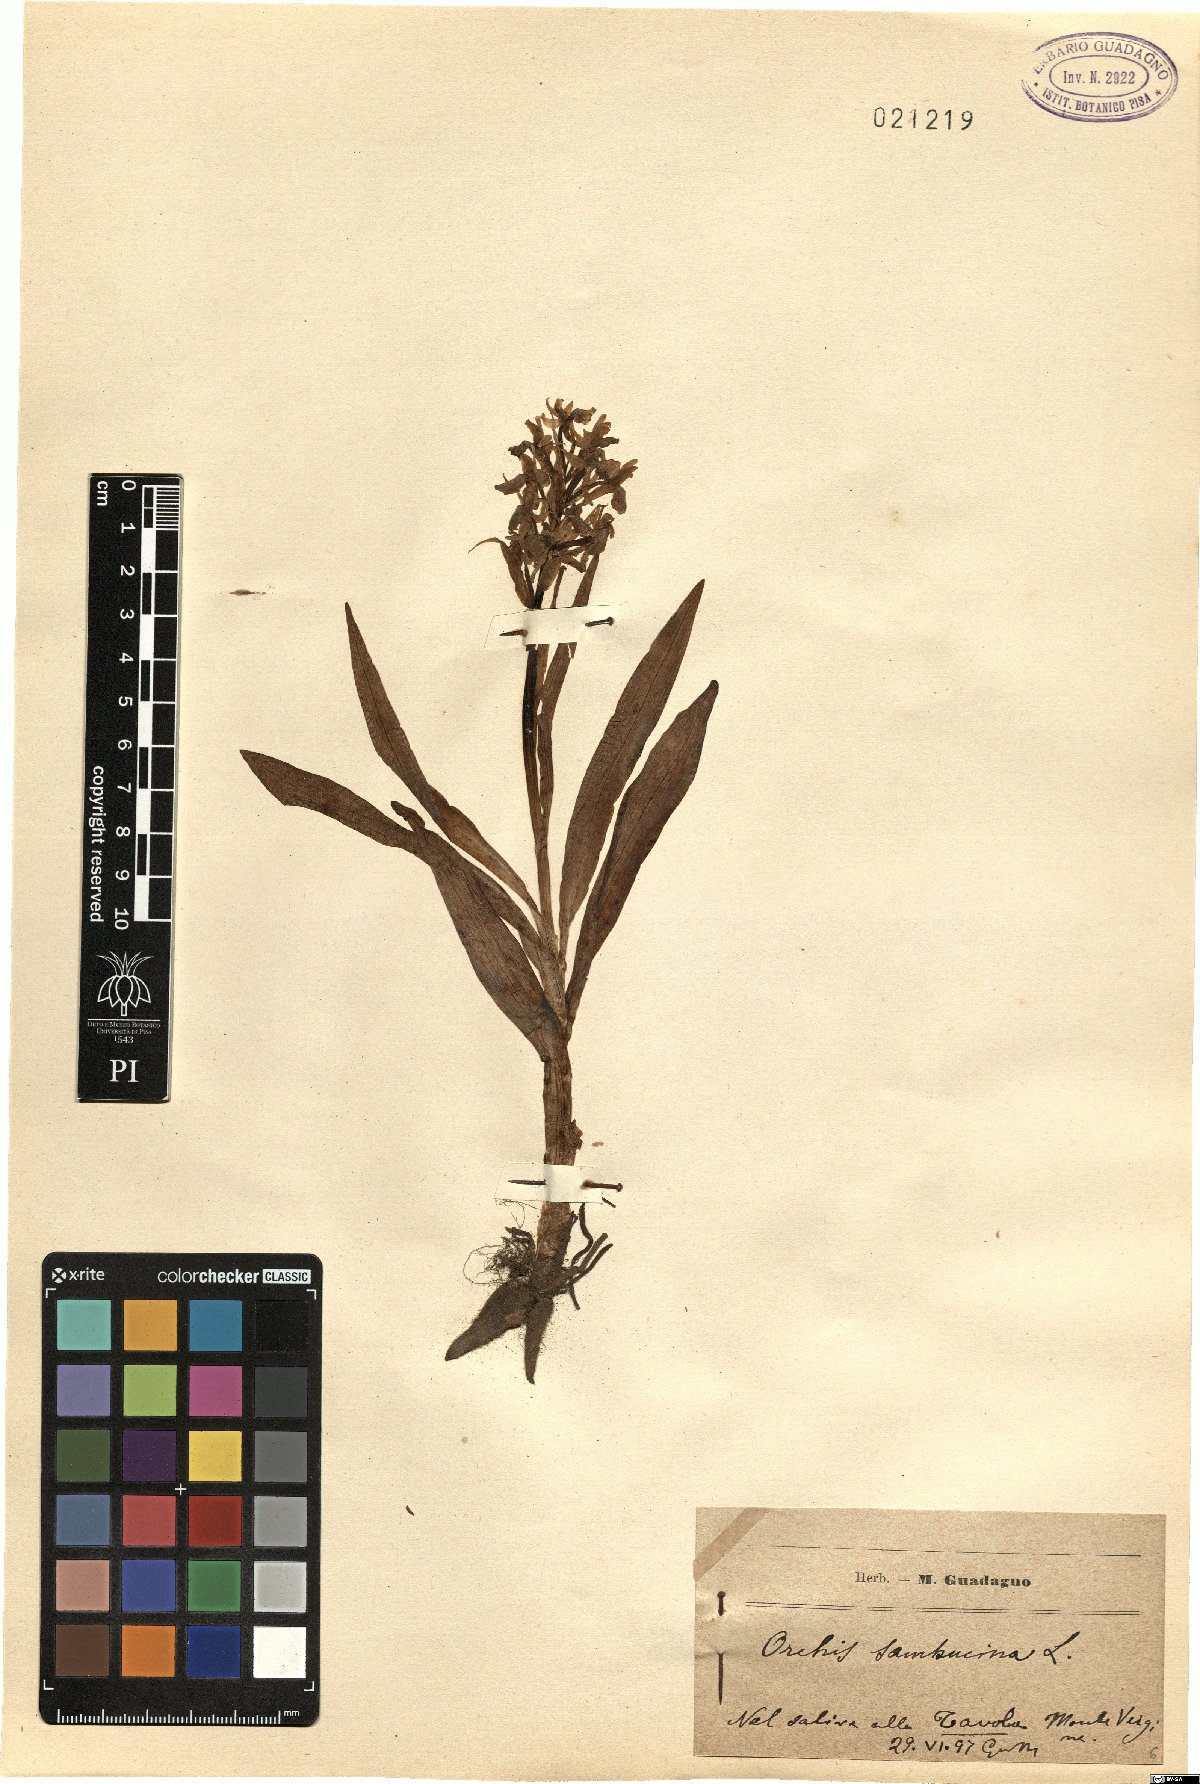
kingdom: Plantae
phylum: Tracheophyta
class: Liliopsida
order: Asparagales
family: Orchidaceae
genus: Dactylorhiza
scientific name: Dactylorhiza sambucina
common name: Elder-flowered orchid
